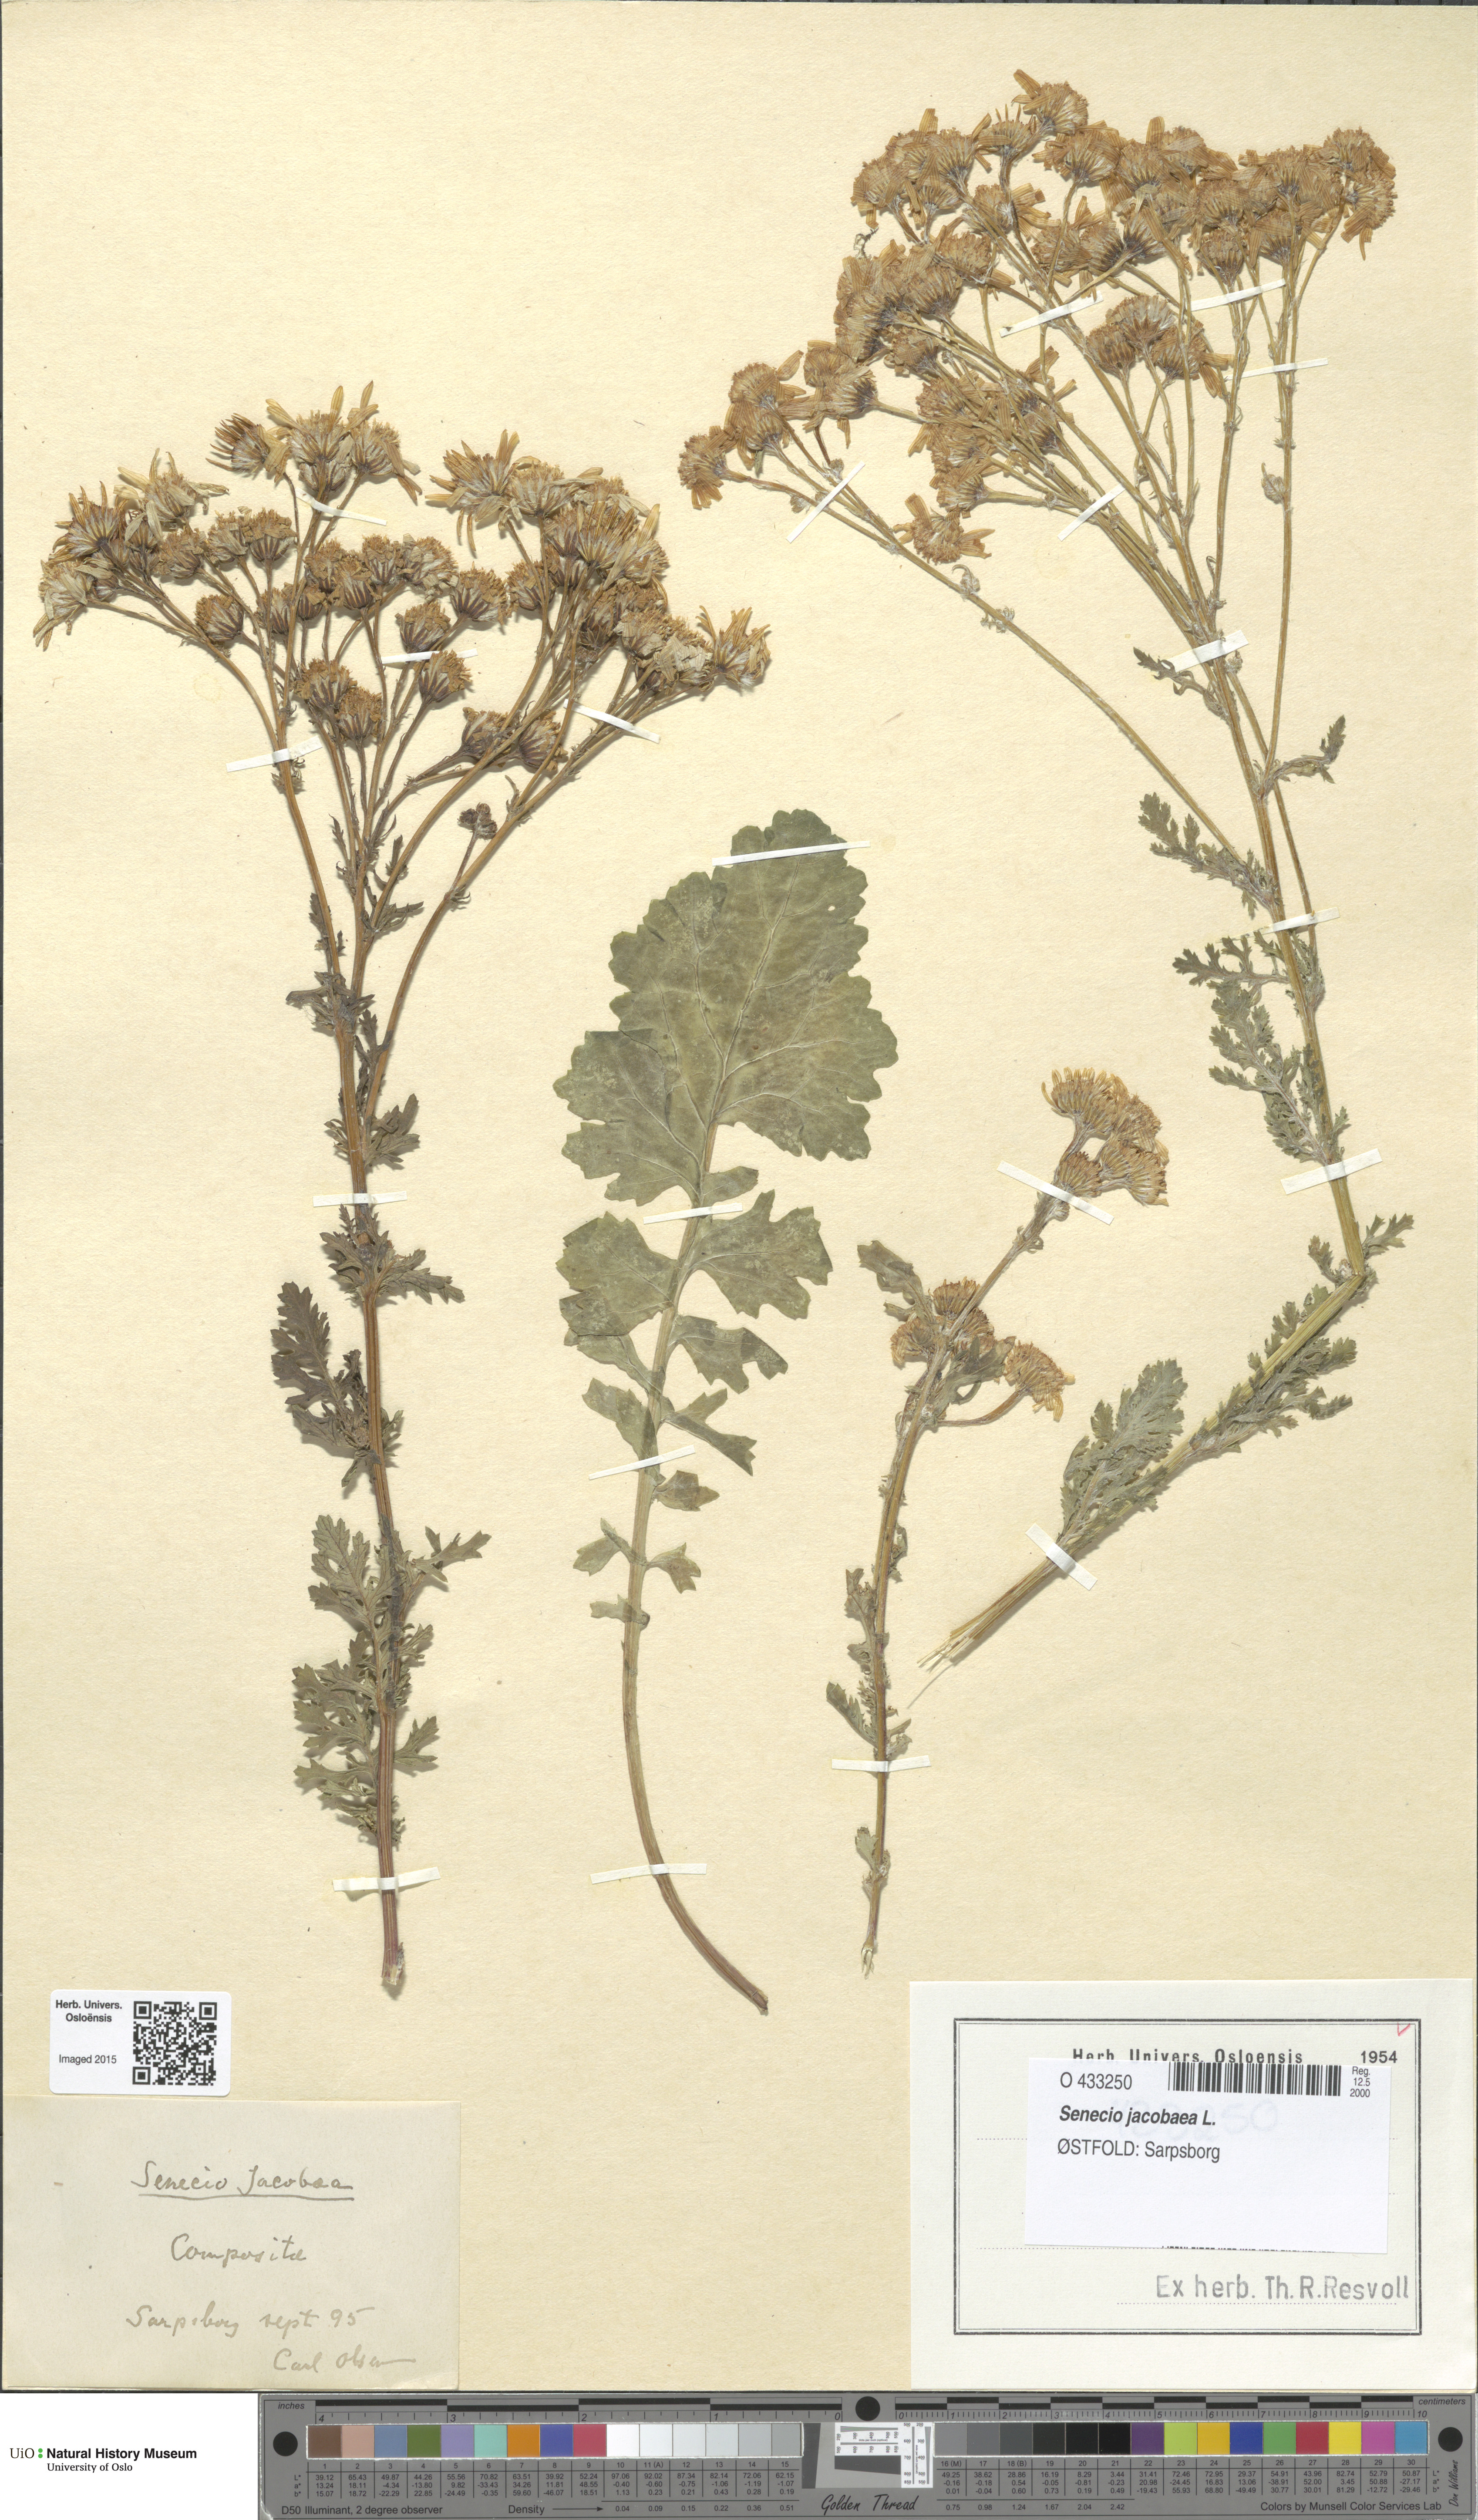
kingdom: Plantae
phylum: Tracheophyta
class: Magnoliopsida
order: Asterales
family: Asteraceae
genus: Jacobaea
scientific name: Jacobaea vulgaris
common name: Stinking willie
